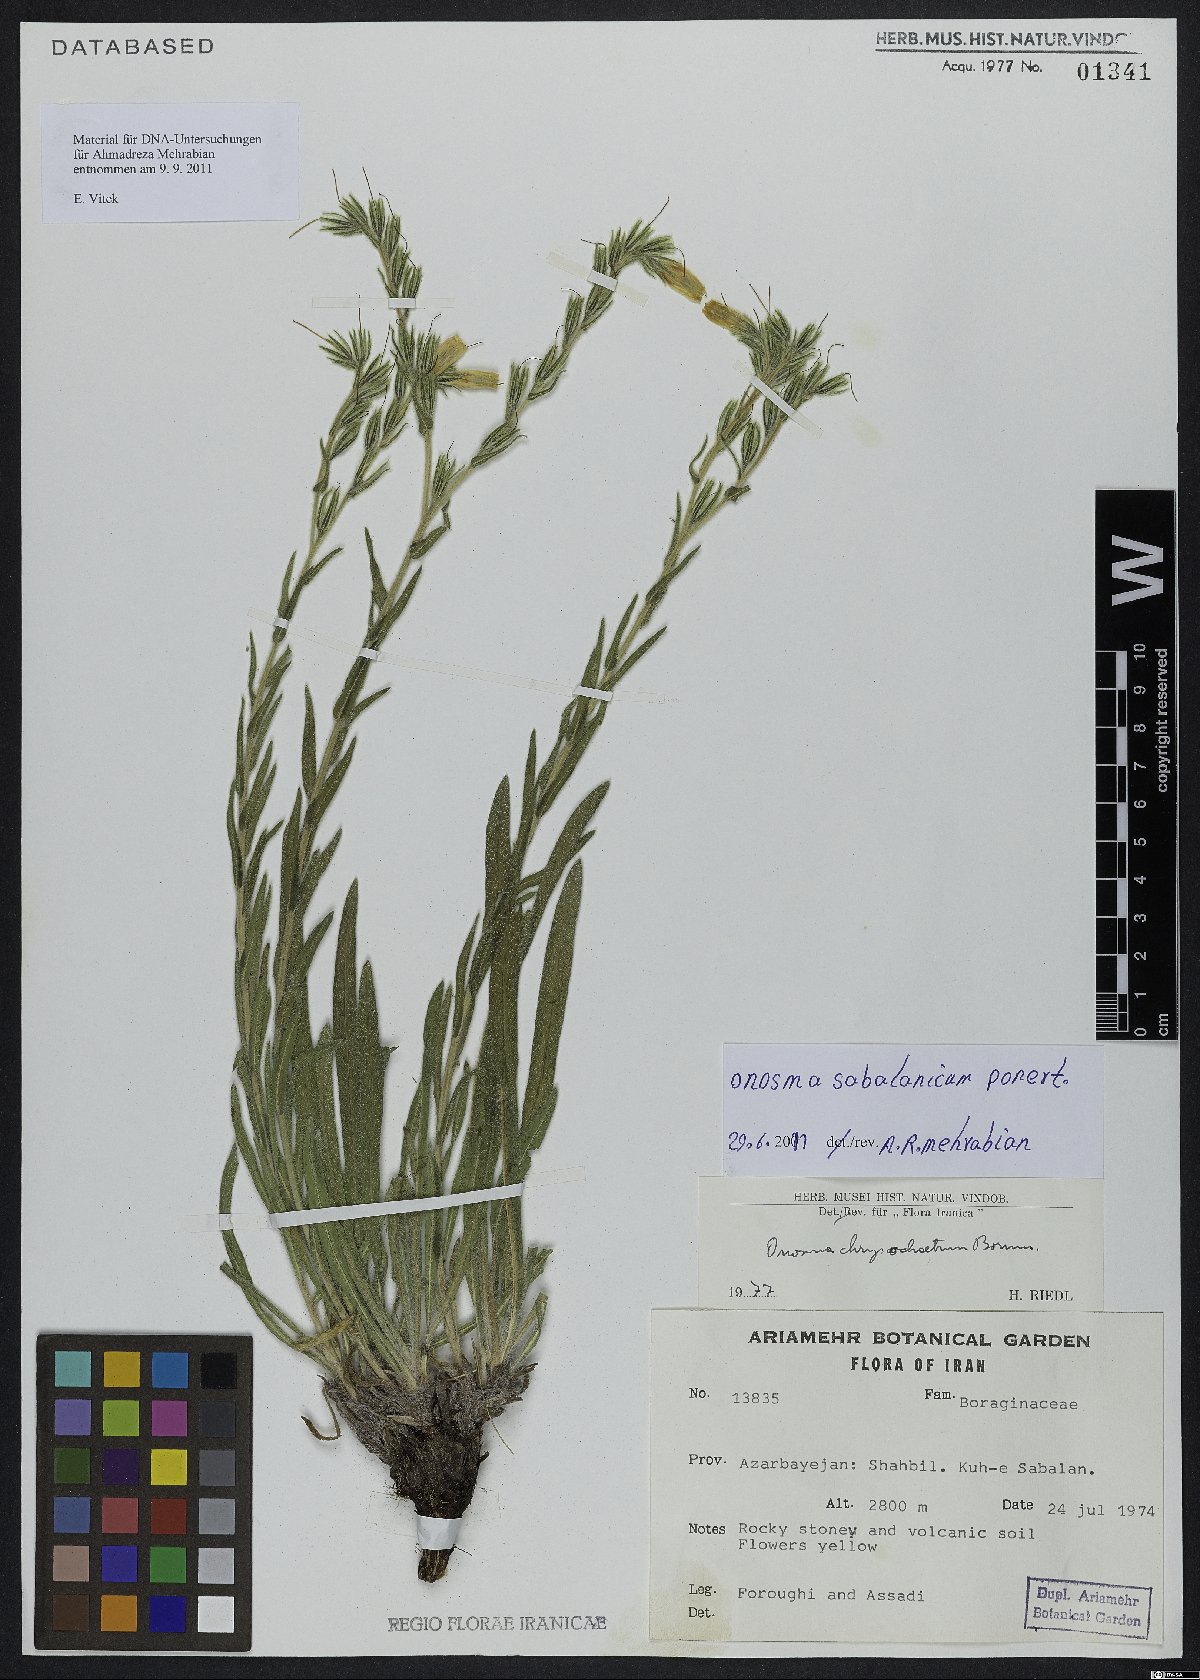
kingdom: Plantae
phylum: Tracheophyta
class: Magnoliopsida
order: Boraginales
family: Boraginaceae
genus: Onosma
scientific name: Onosma sabalanica
